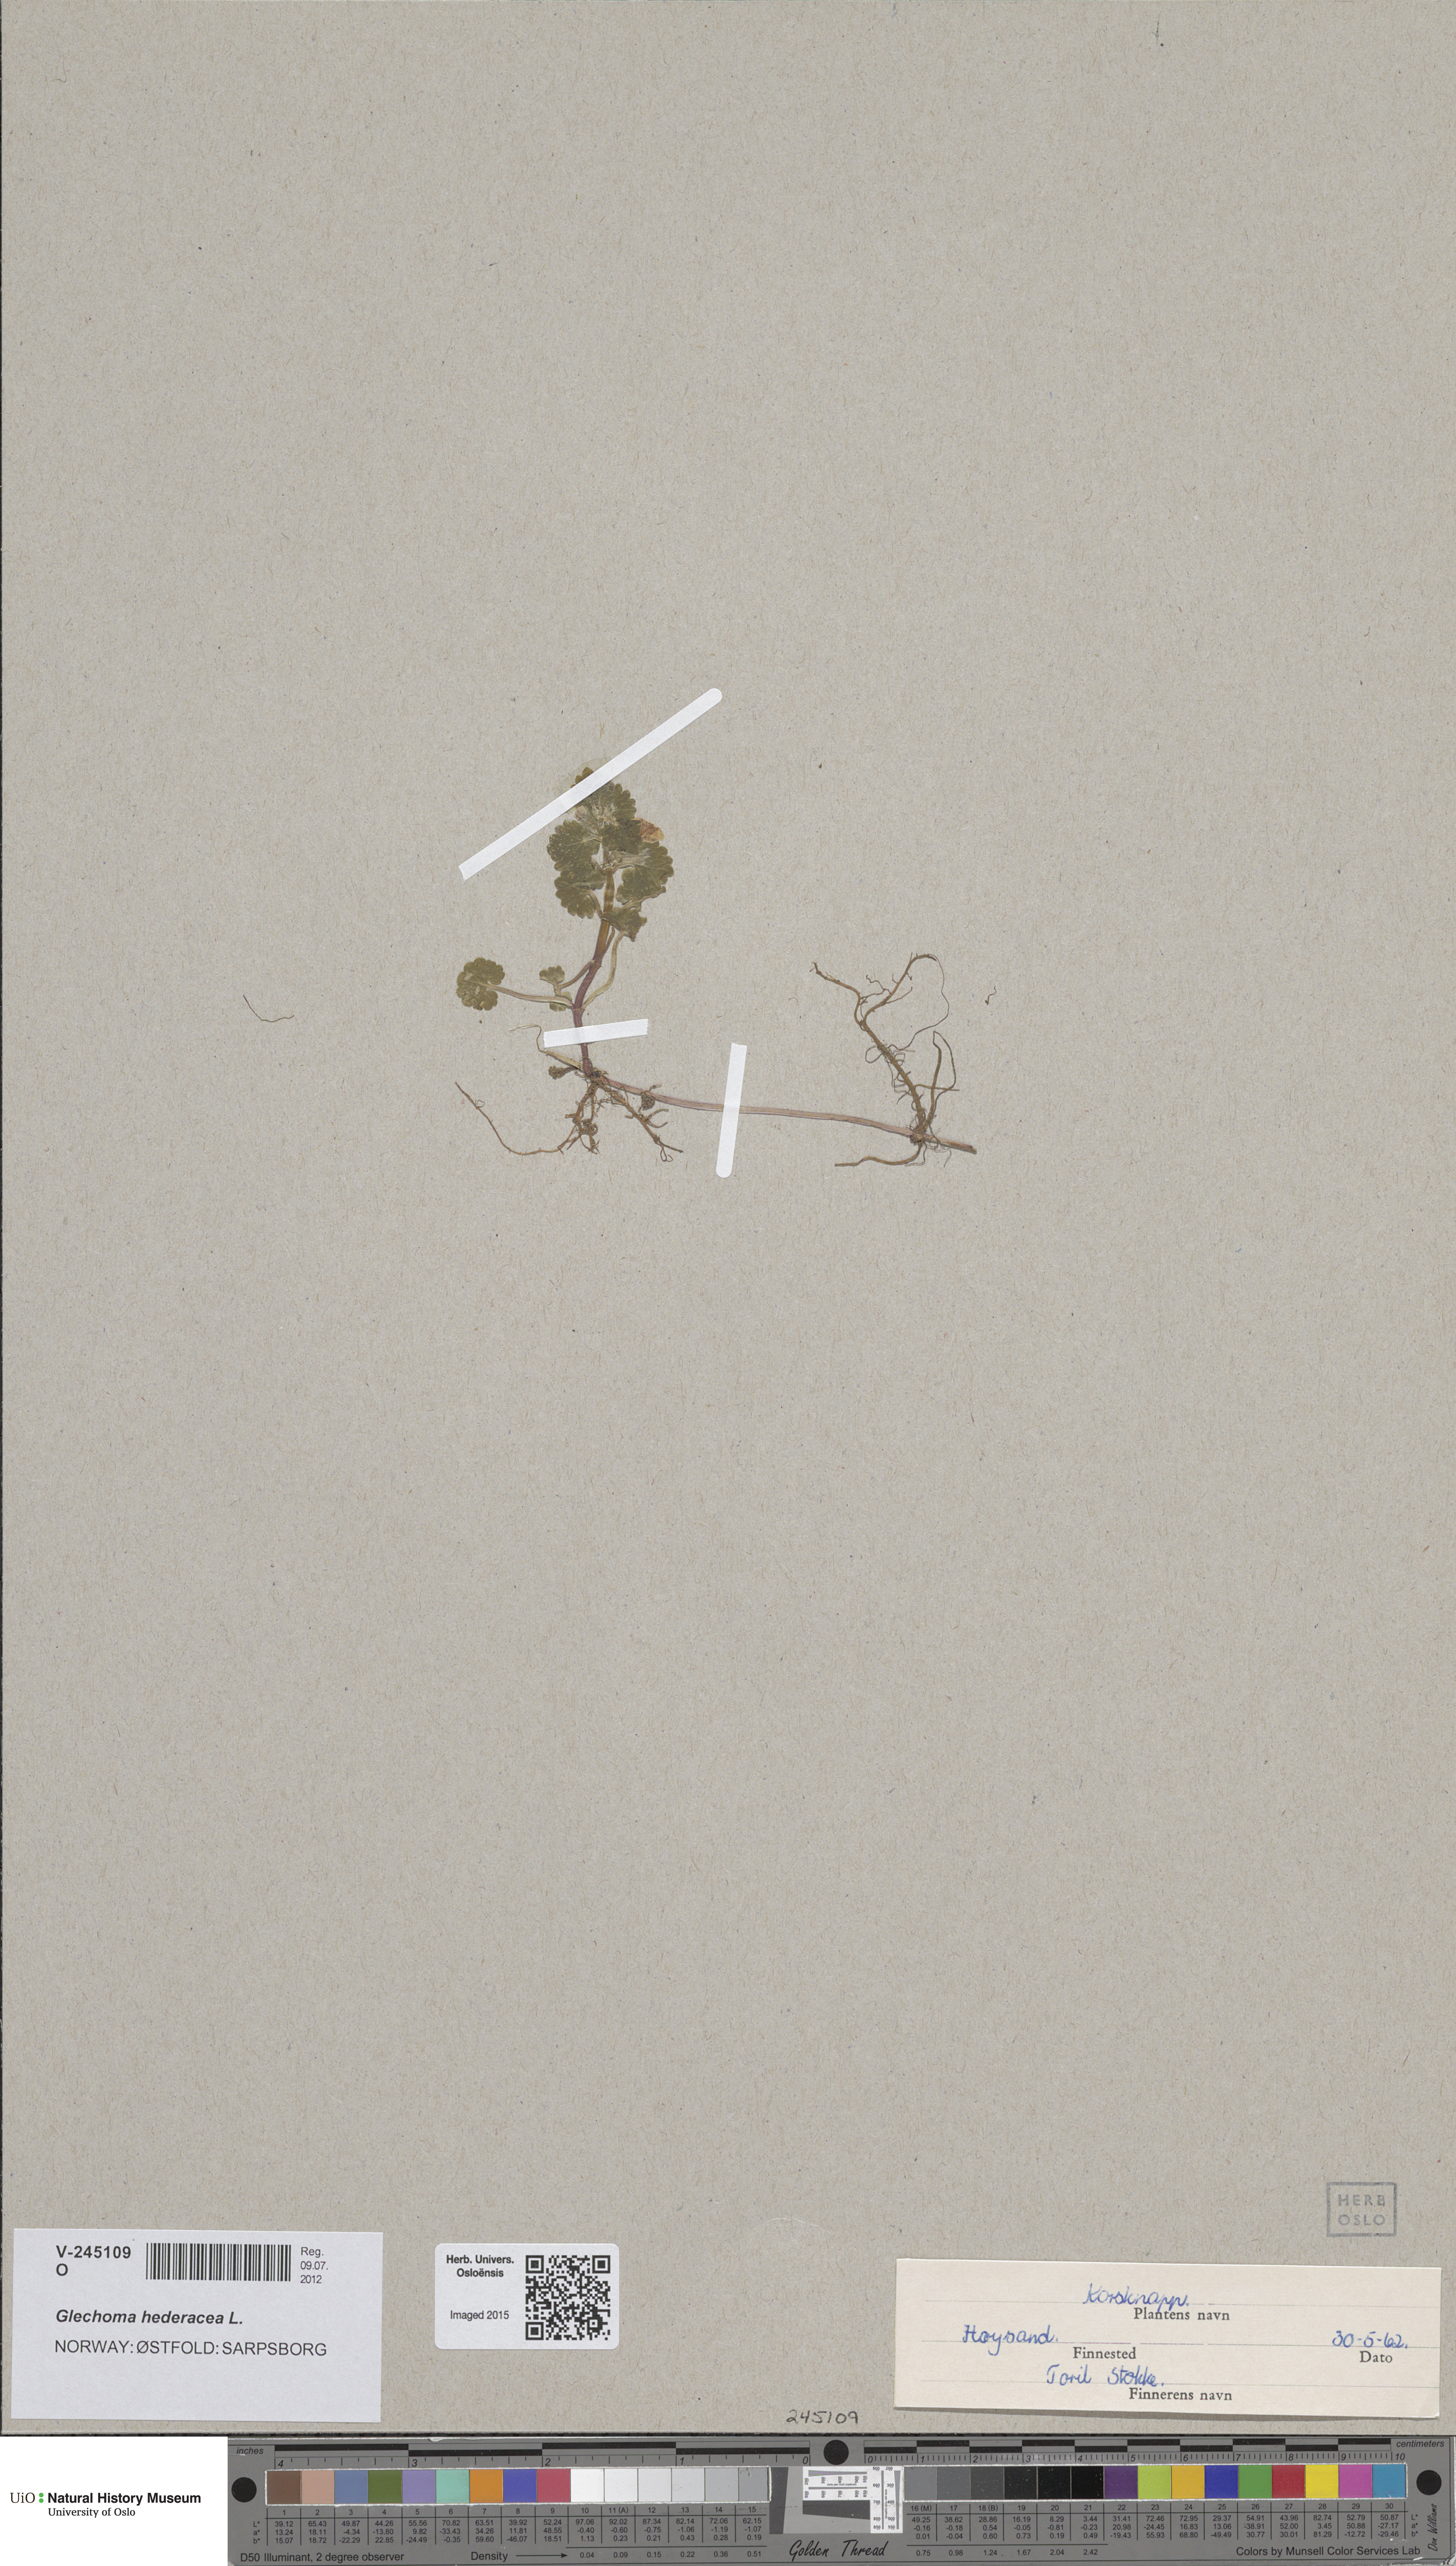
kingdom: Plantae
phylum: Tracheophyta
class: Magnoliopsida
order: Lamiales
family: Lamiaceae
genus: Glechoma
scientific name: Glechoma hederacea
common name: Ground ivy
